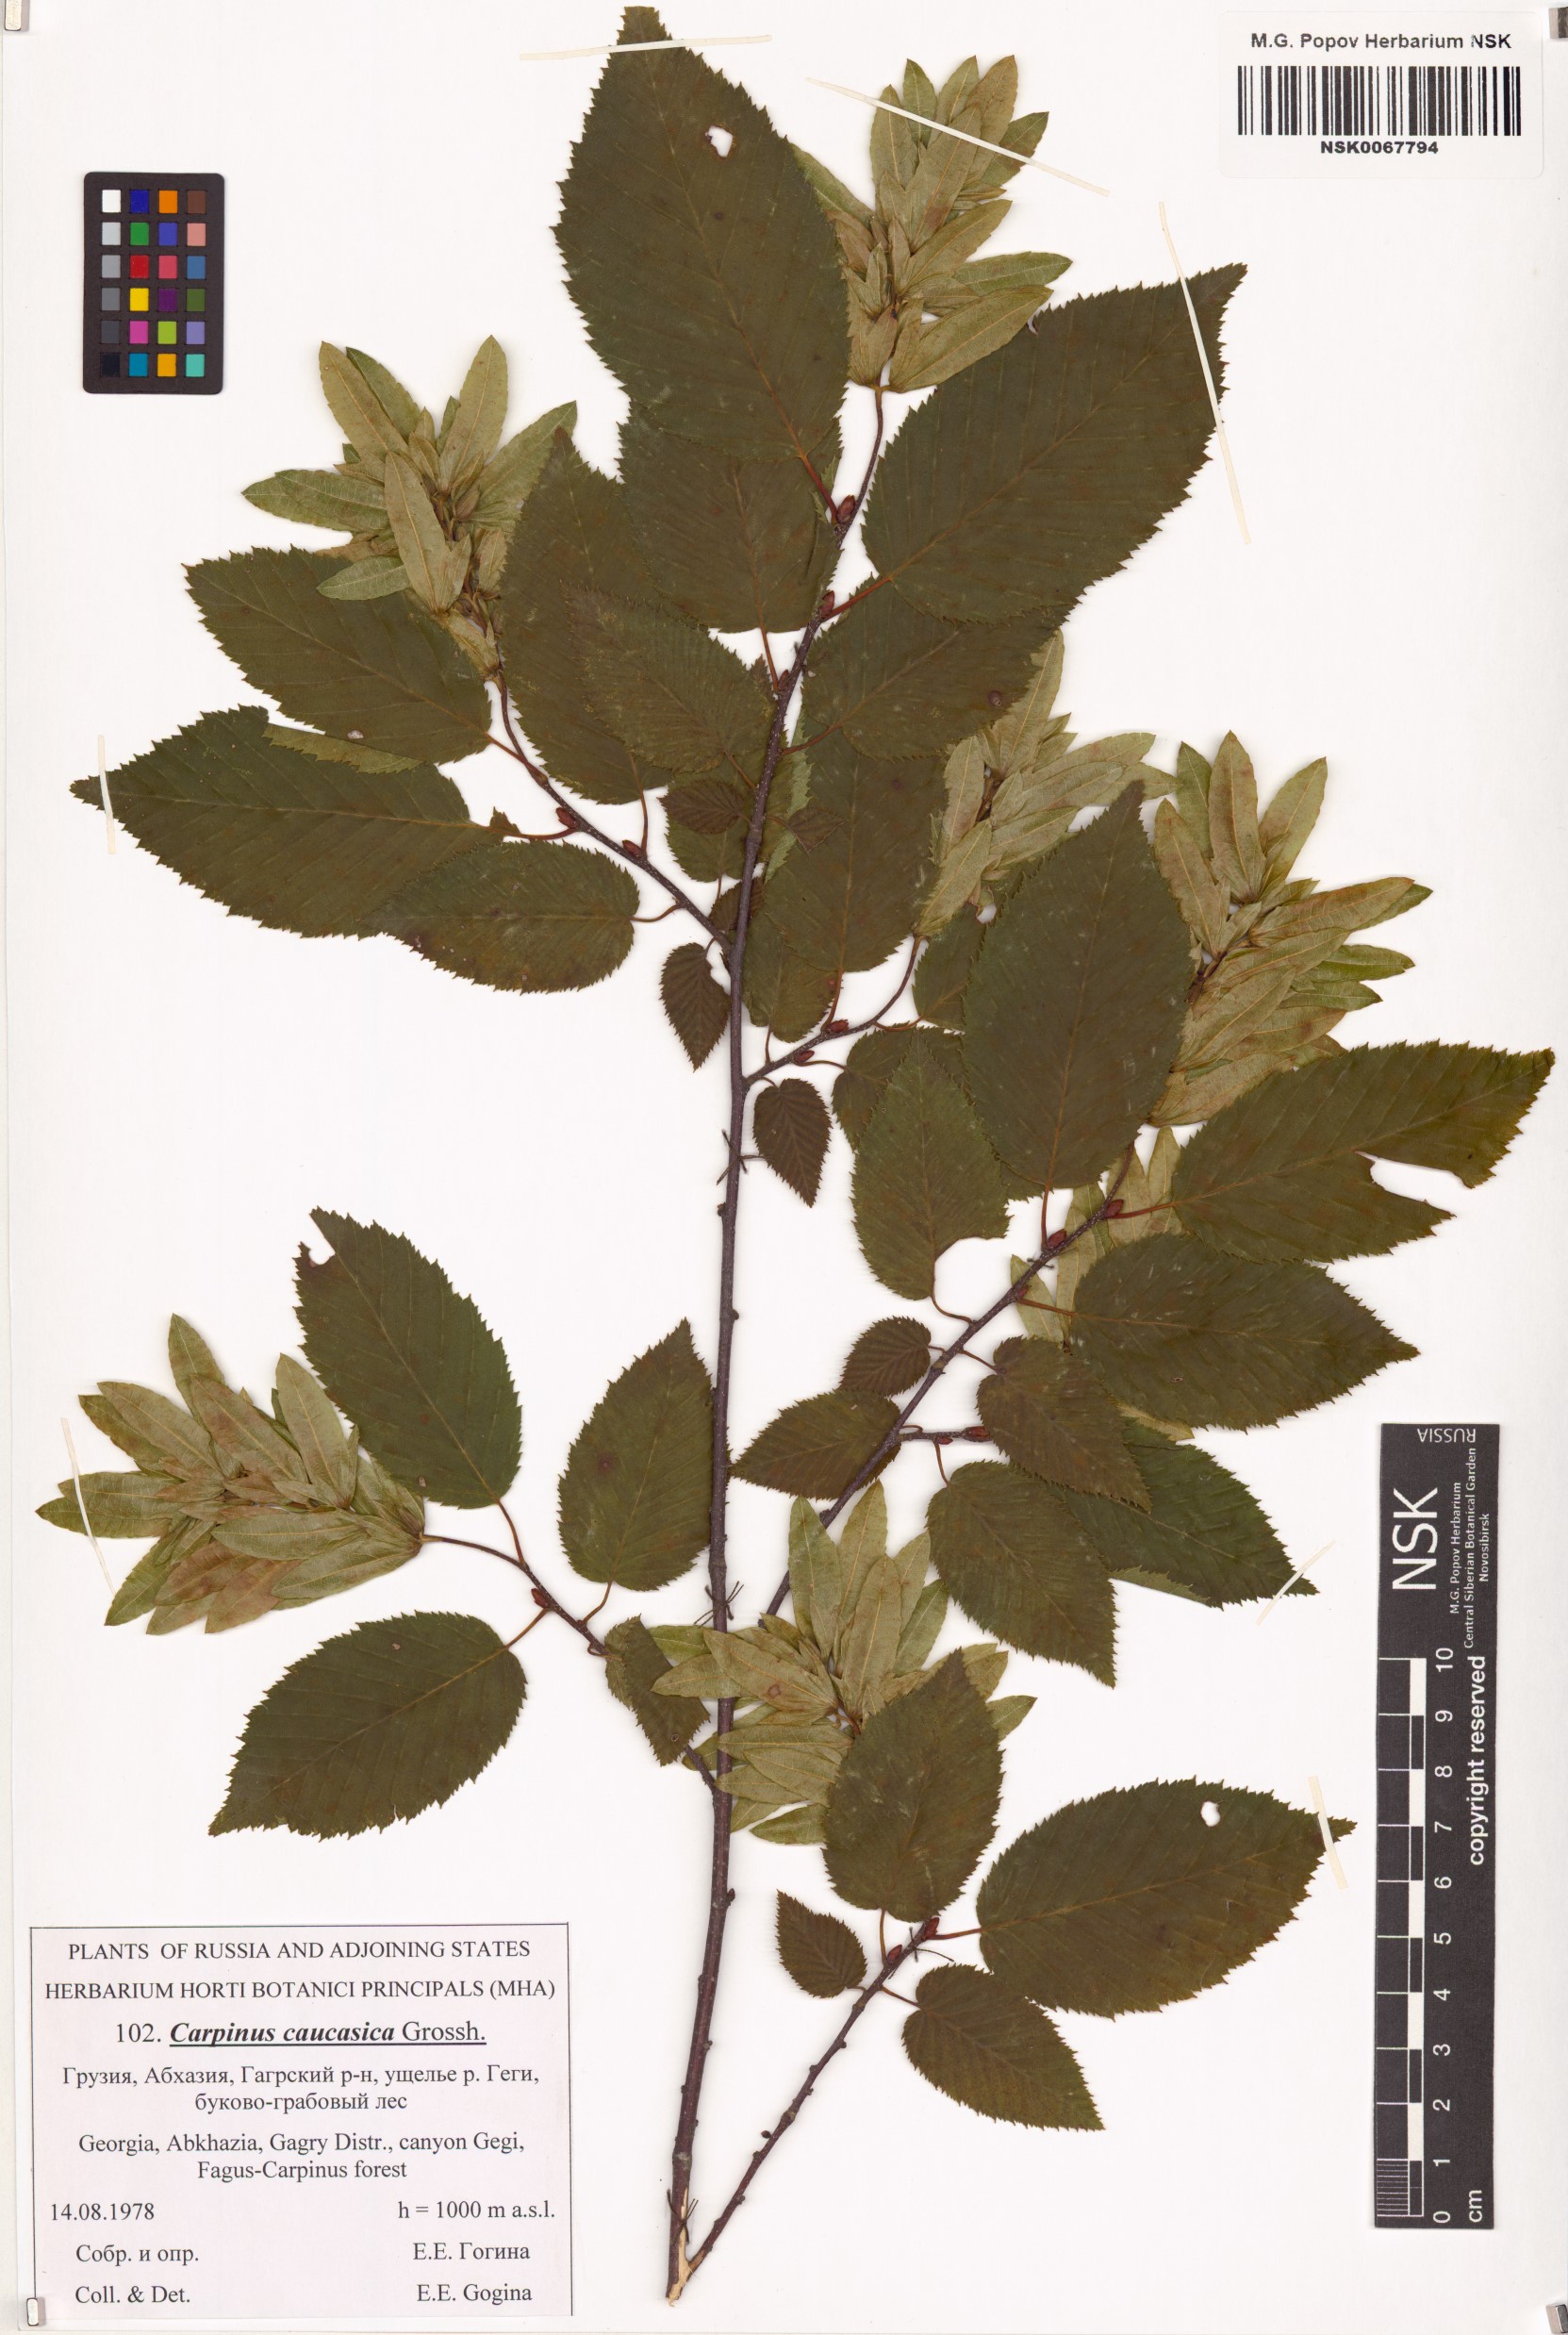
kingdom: Plantae
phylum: Tracheophyta
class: Magnoliopsida
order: Fagales
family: Betulaceae
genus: Carpinus
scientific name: Carpinus betulus
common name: Hornbeam
